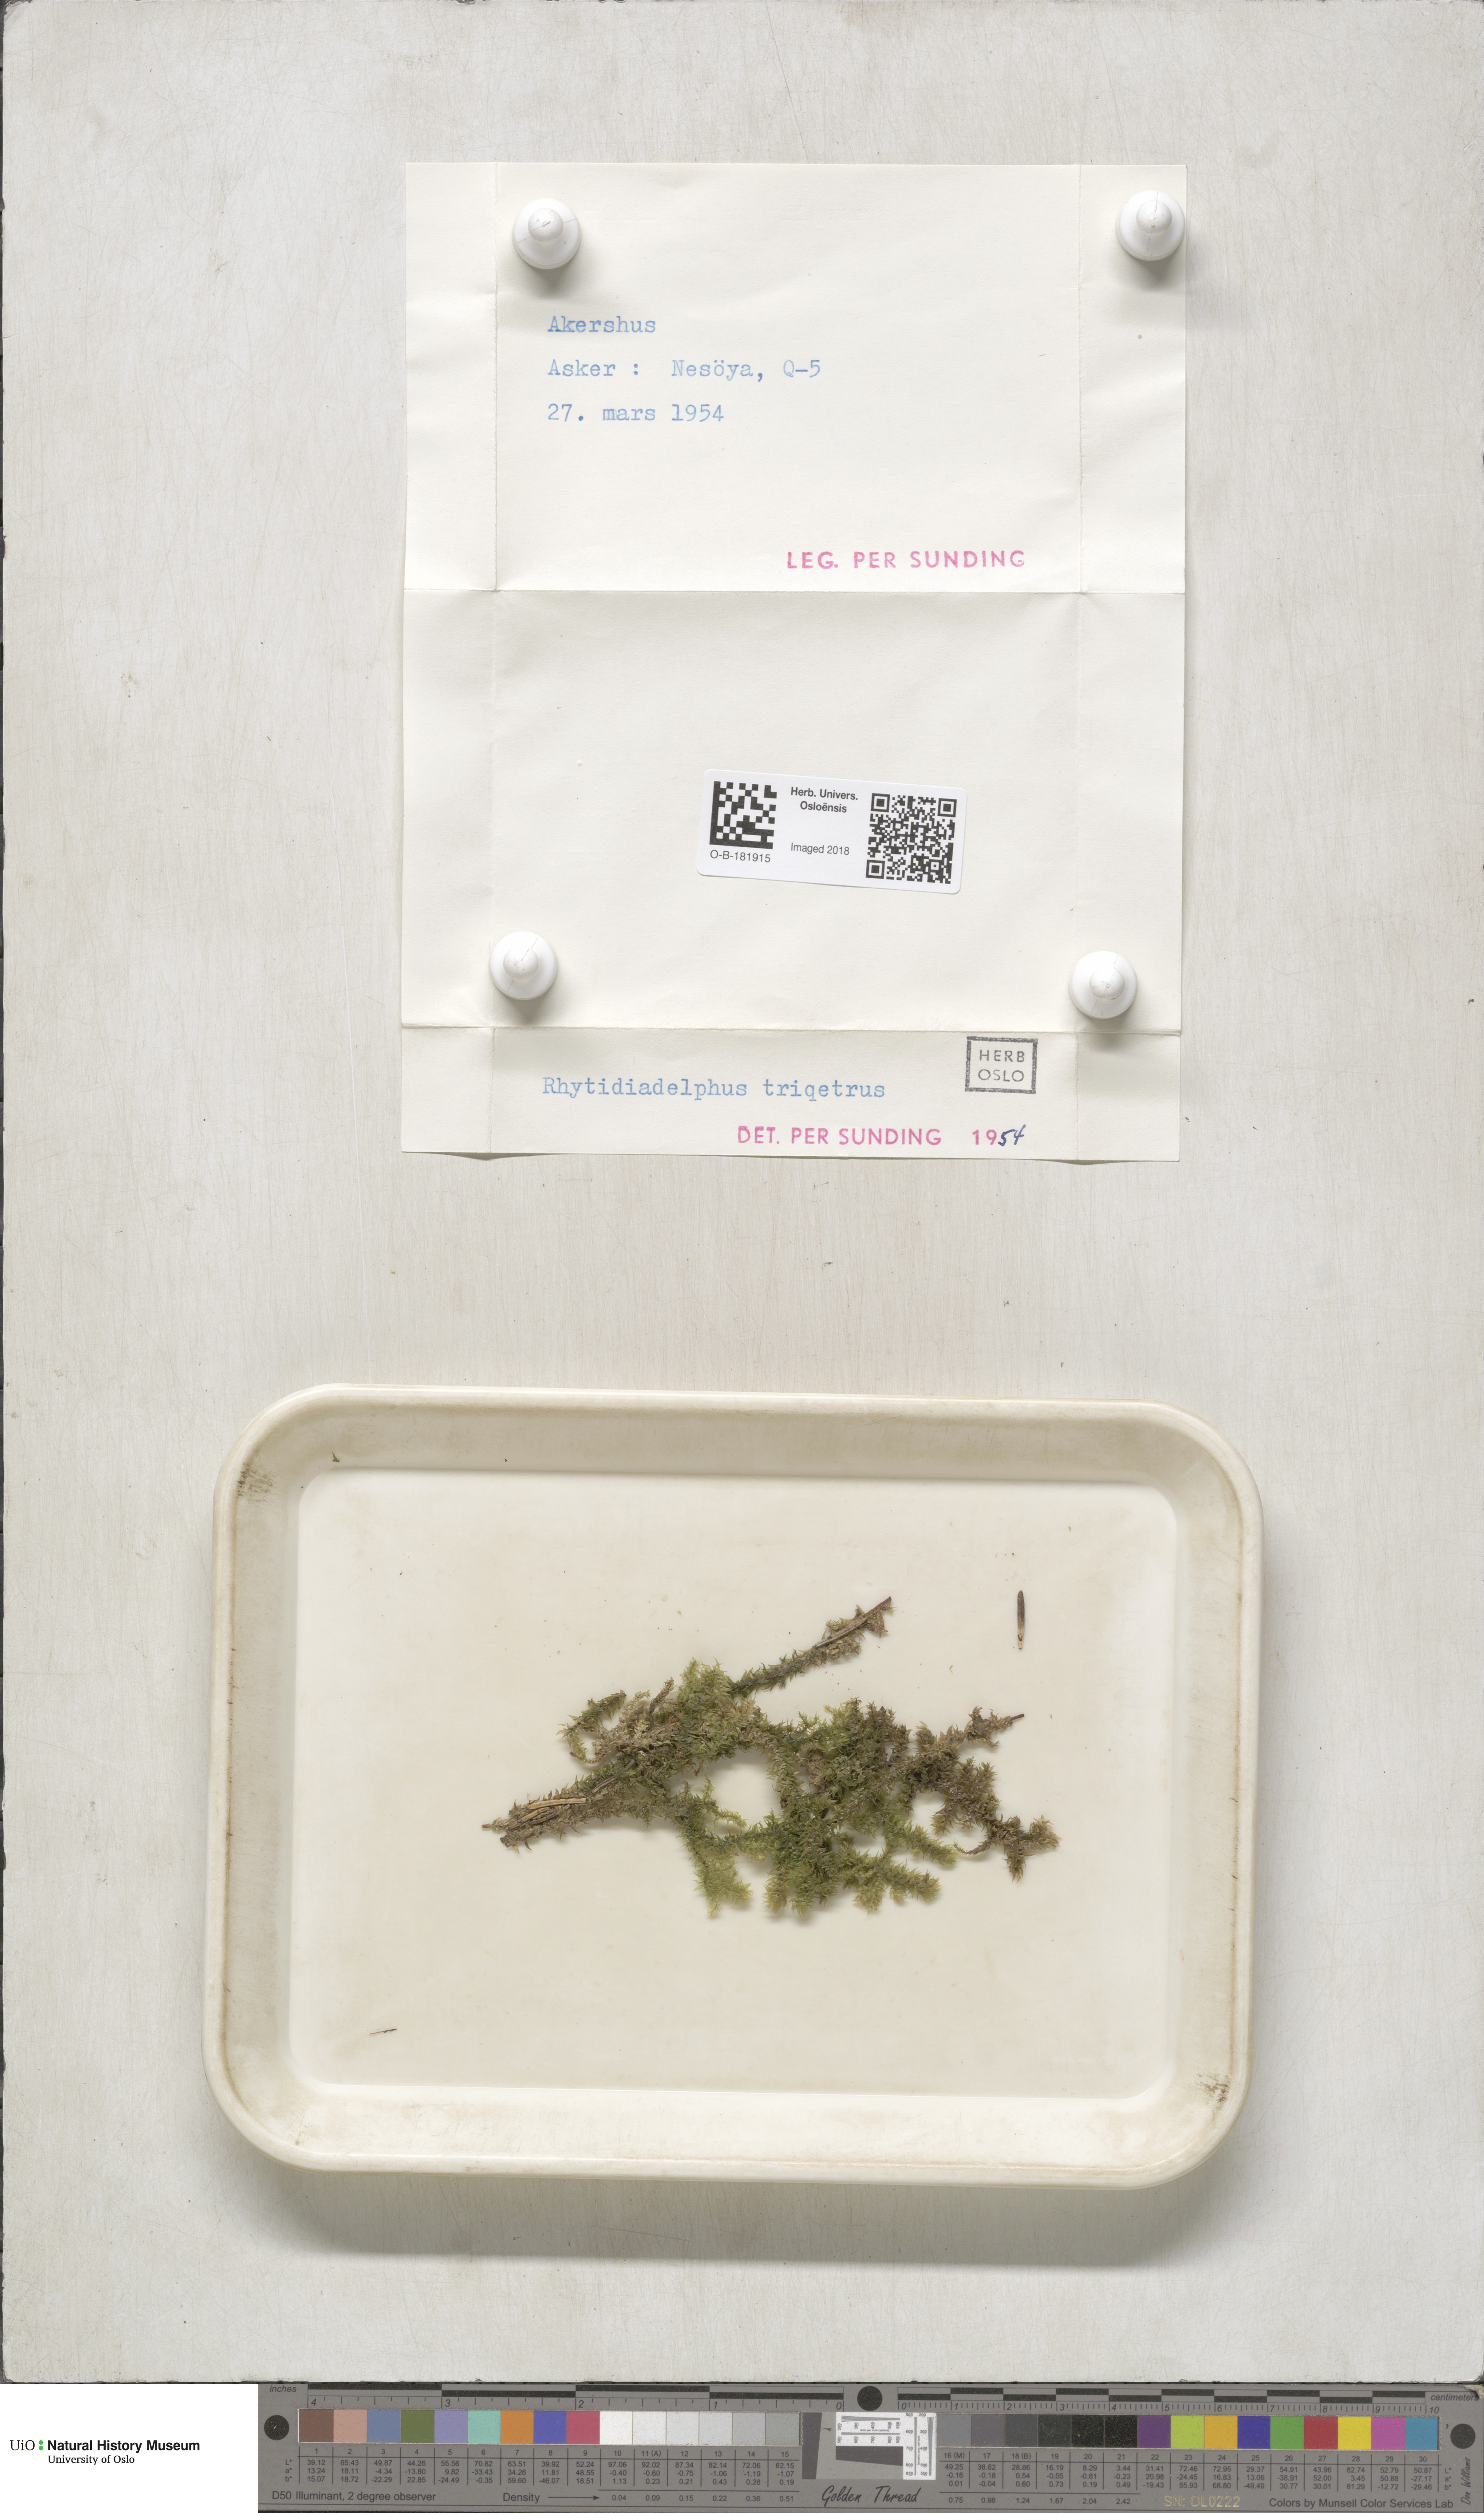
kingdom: Plantae
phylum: Bryophyta
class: Bryopsida
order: Hypnales
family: Hylocomiaceae
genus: Hylocomiadelphus
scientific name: Hylocomiadelphus triquetrus
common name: Rough goose neck moss
